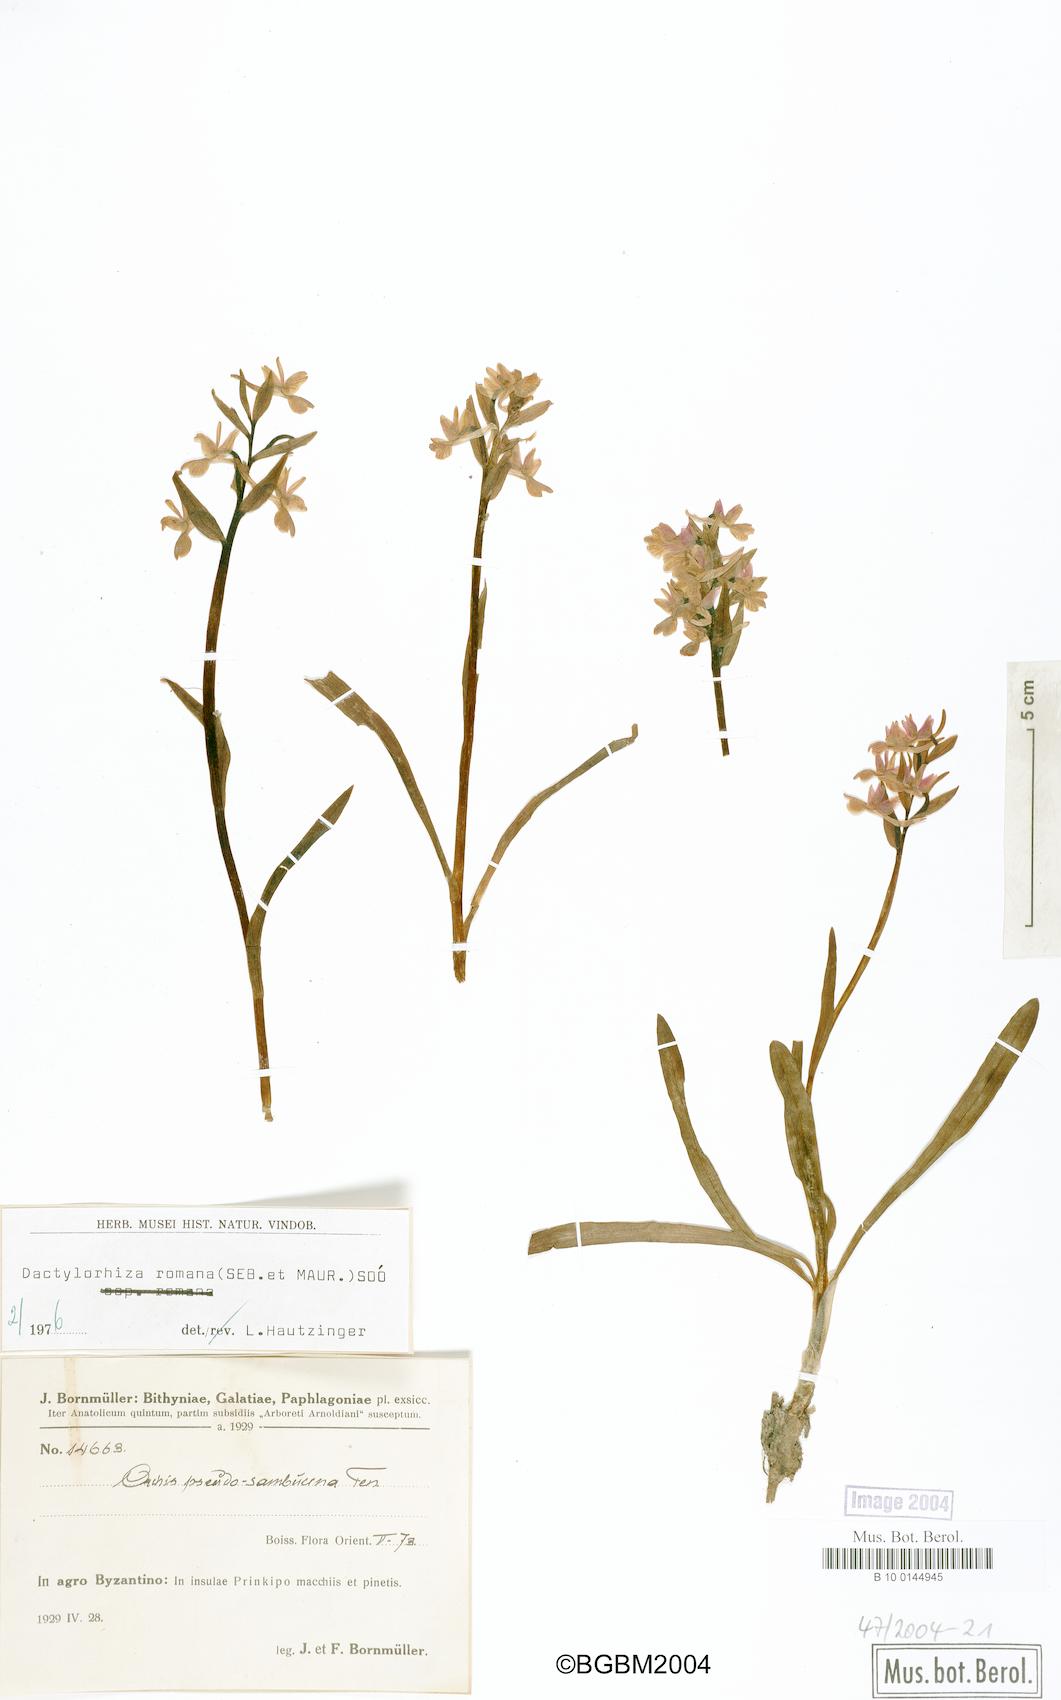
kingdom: Plantae
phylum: Tracheophyta
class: Liliopsida
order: Asparagales
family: Orchidaceae
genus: Dactylorhiza
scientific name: Dactylorhiza romana
